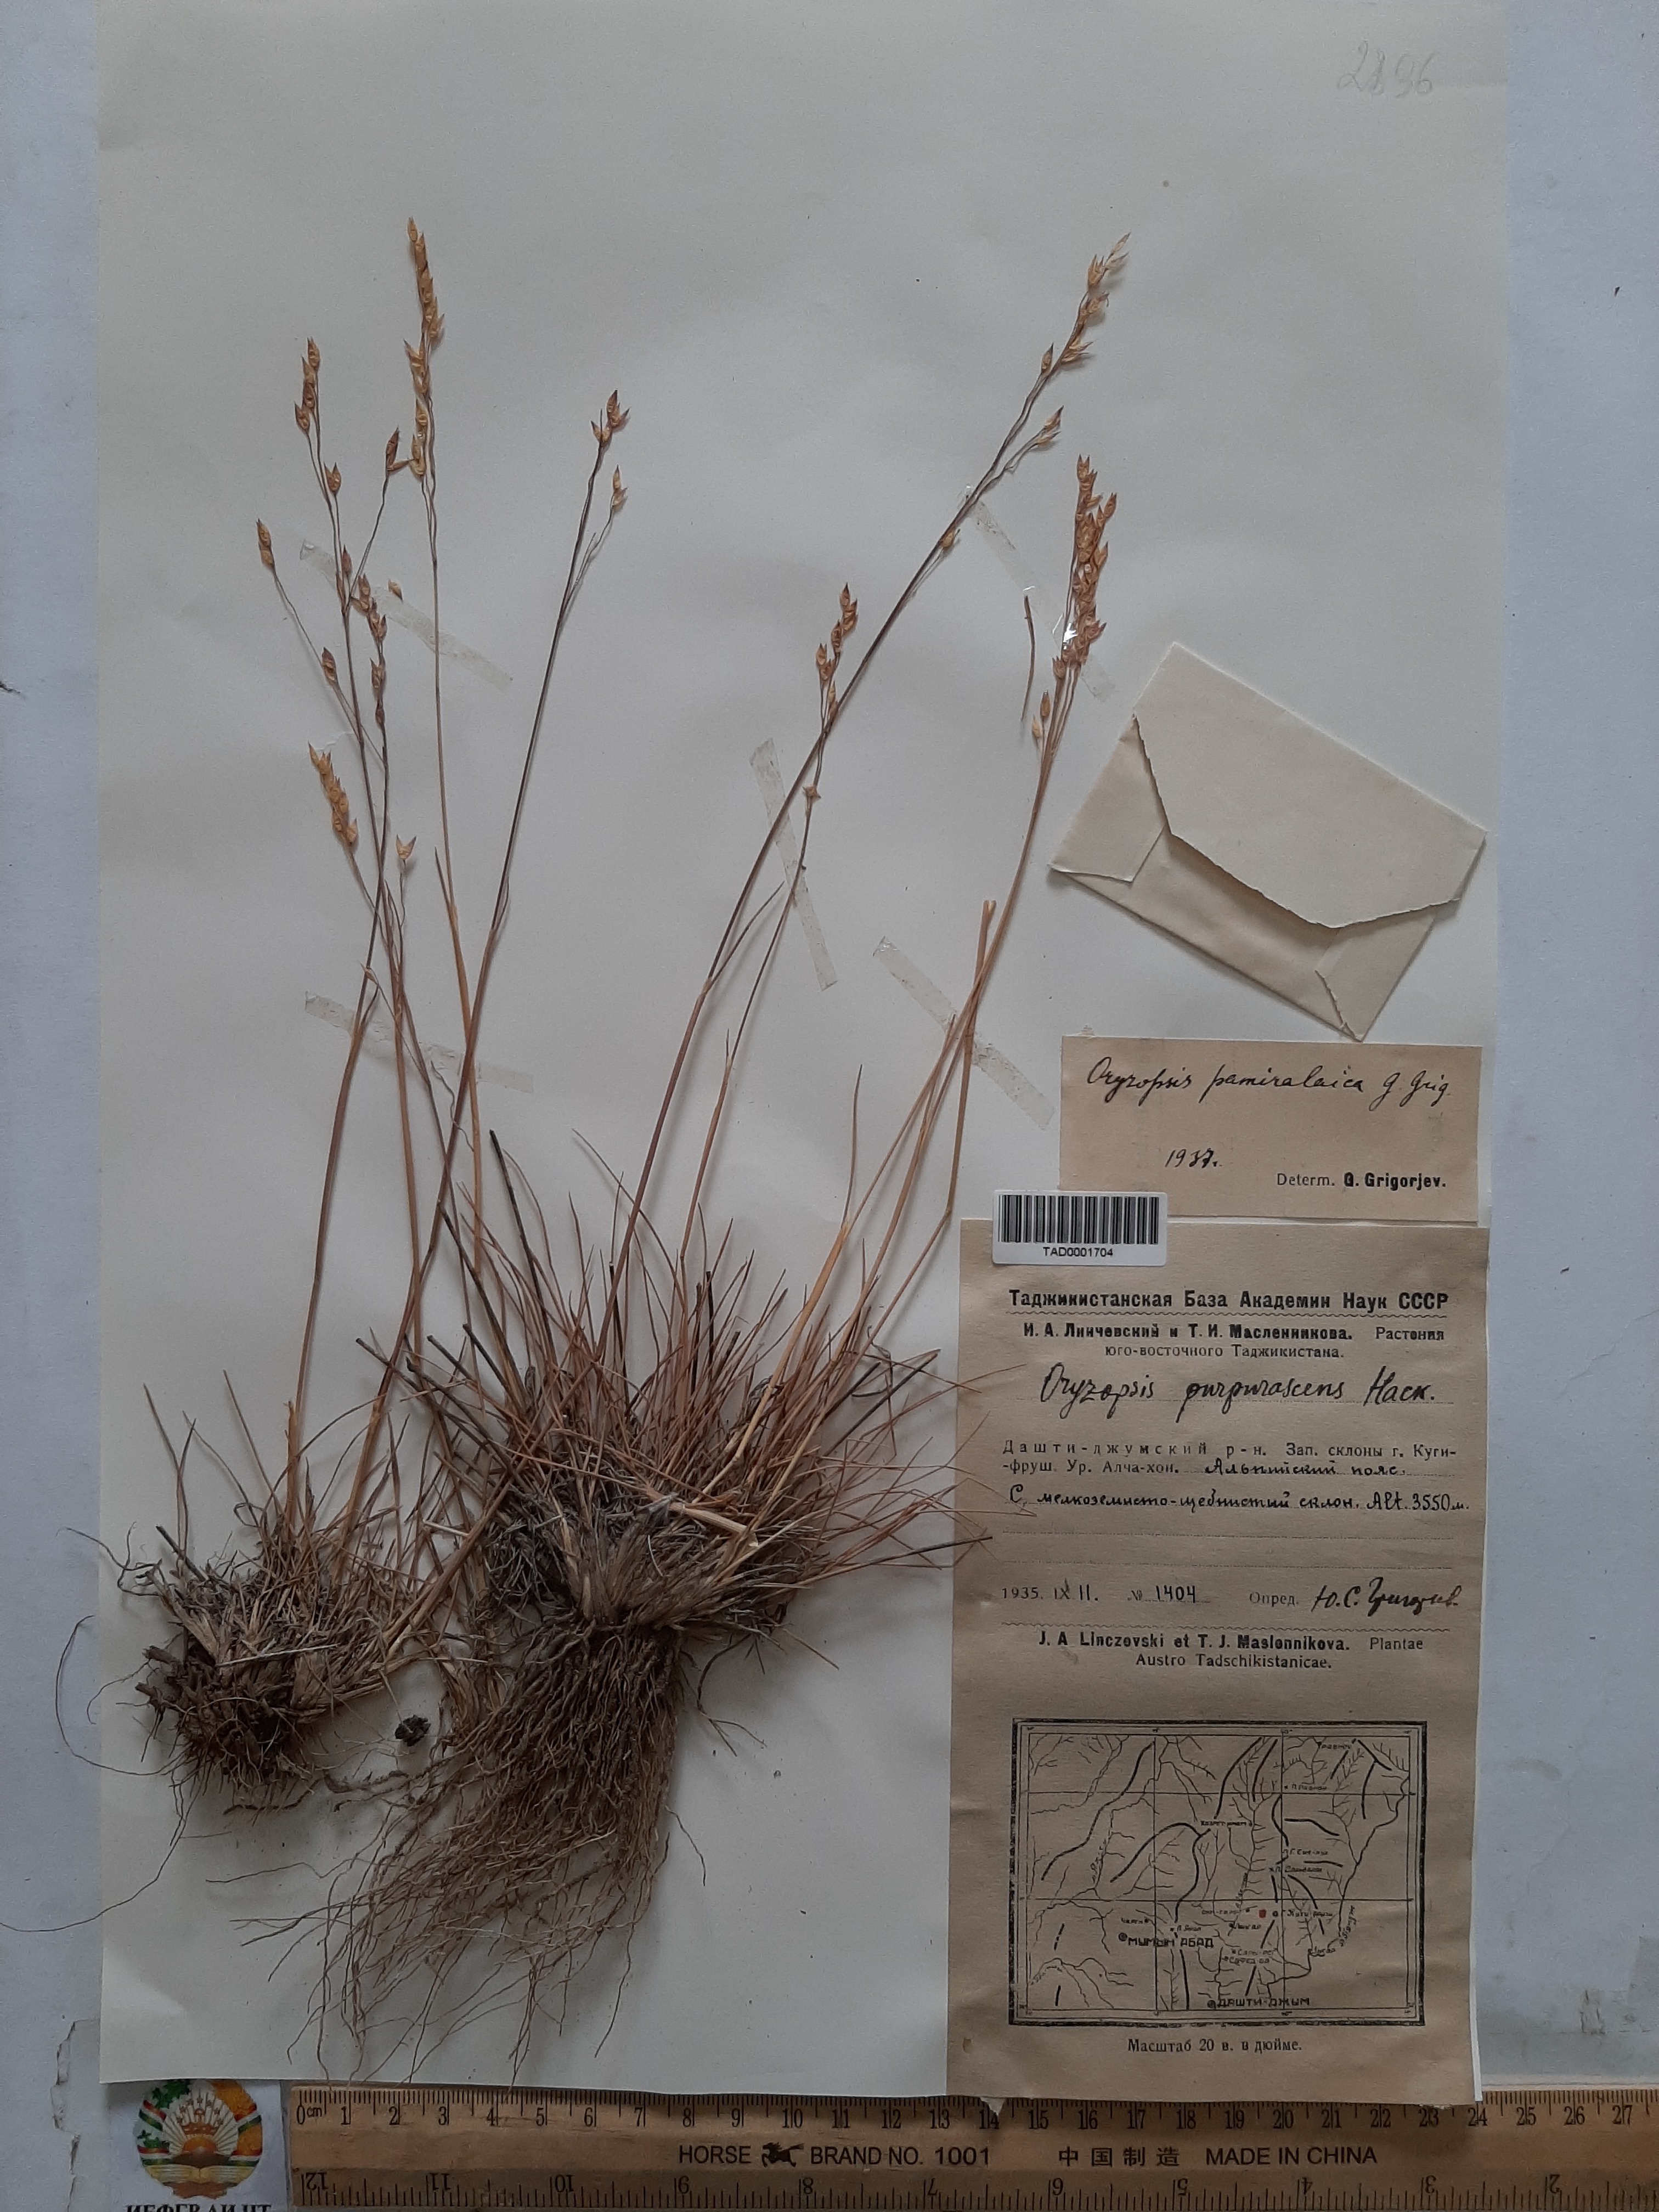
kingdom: Plantae
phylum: Tracheophyta
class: Liliopsida
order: Poales
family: Poaceae
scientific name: Poaceae
